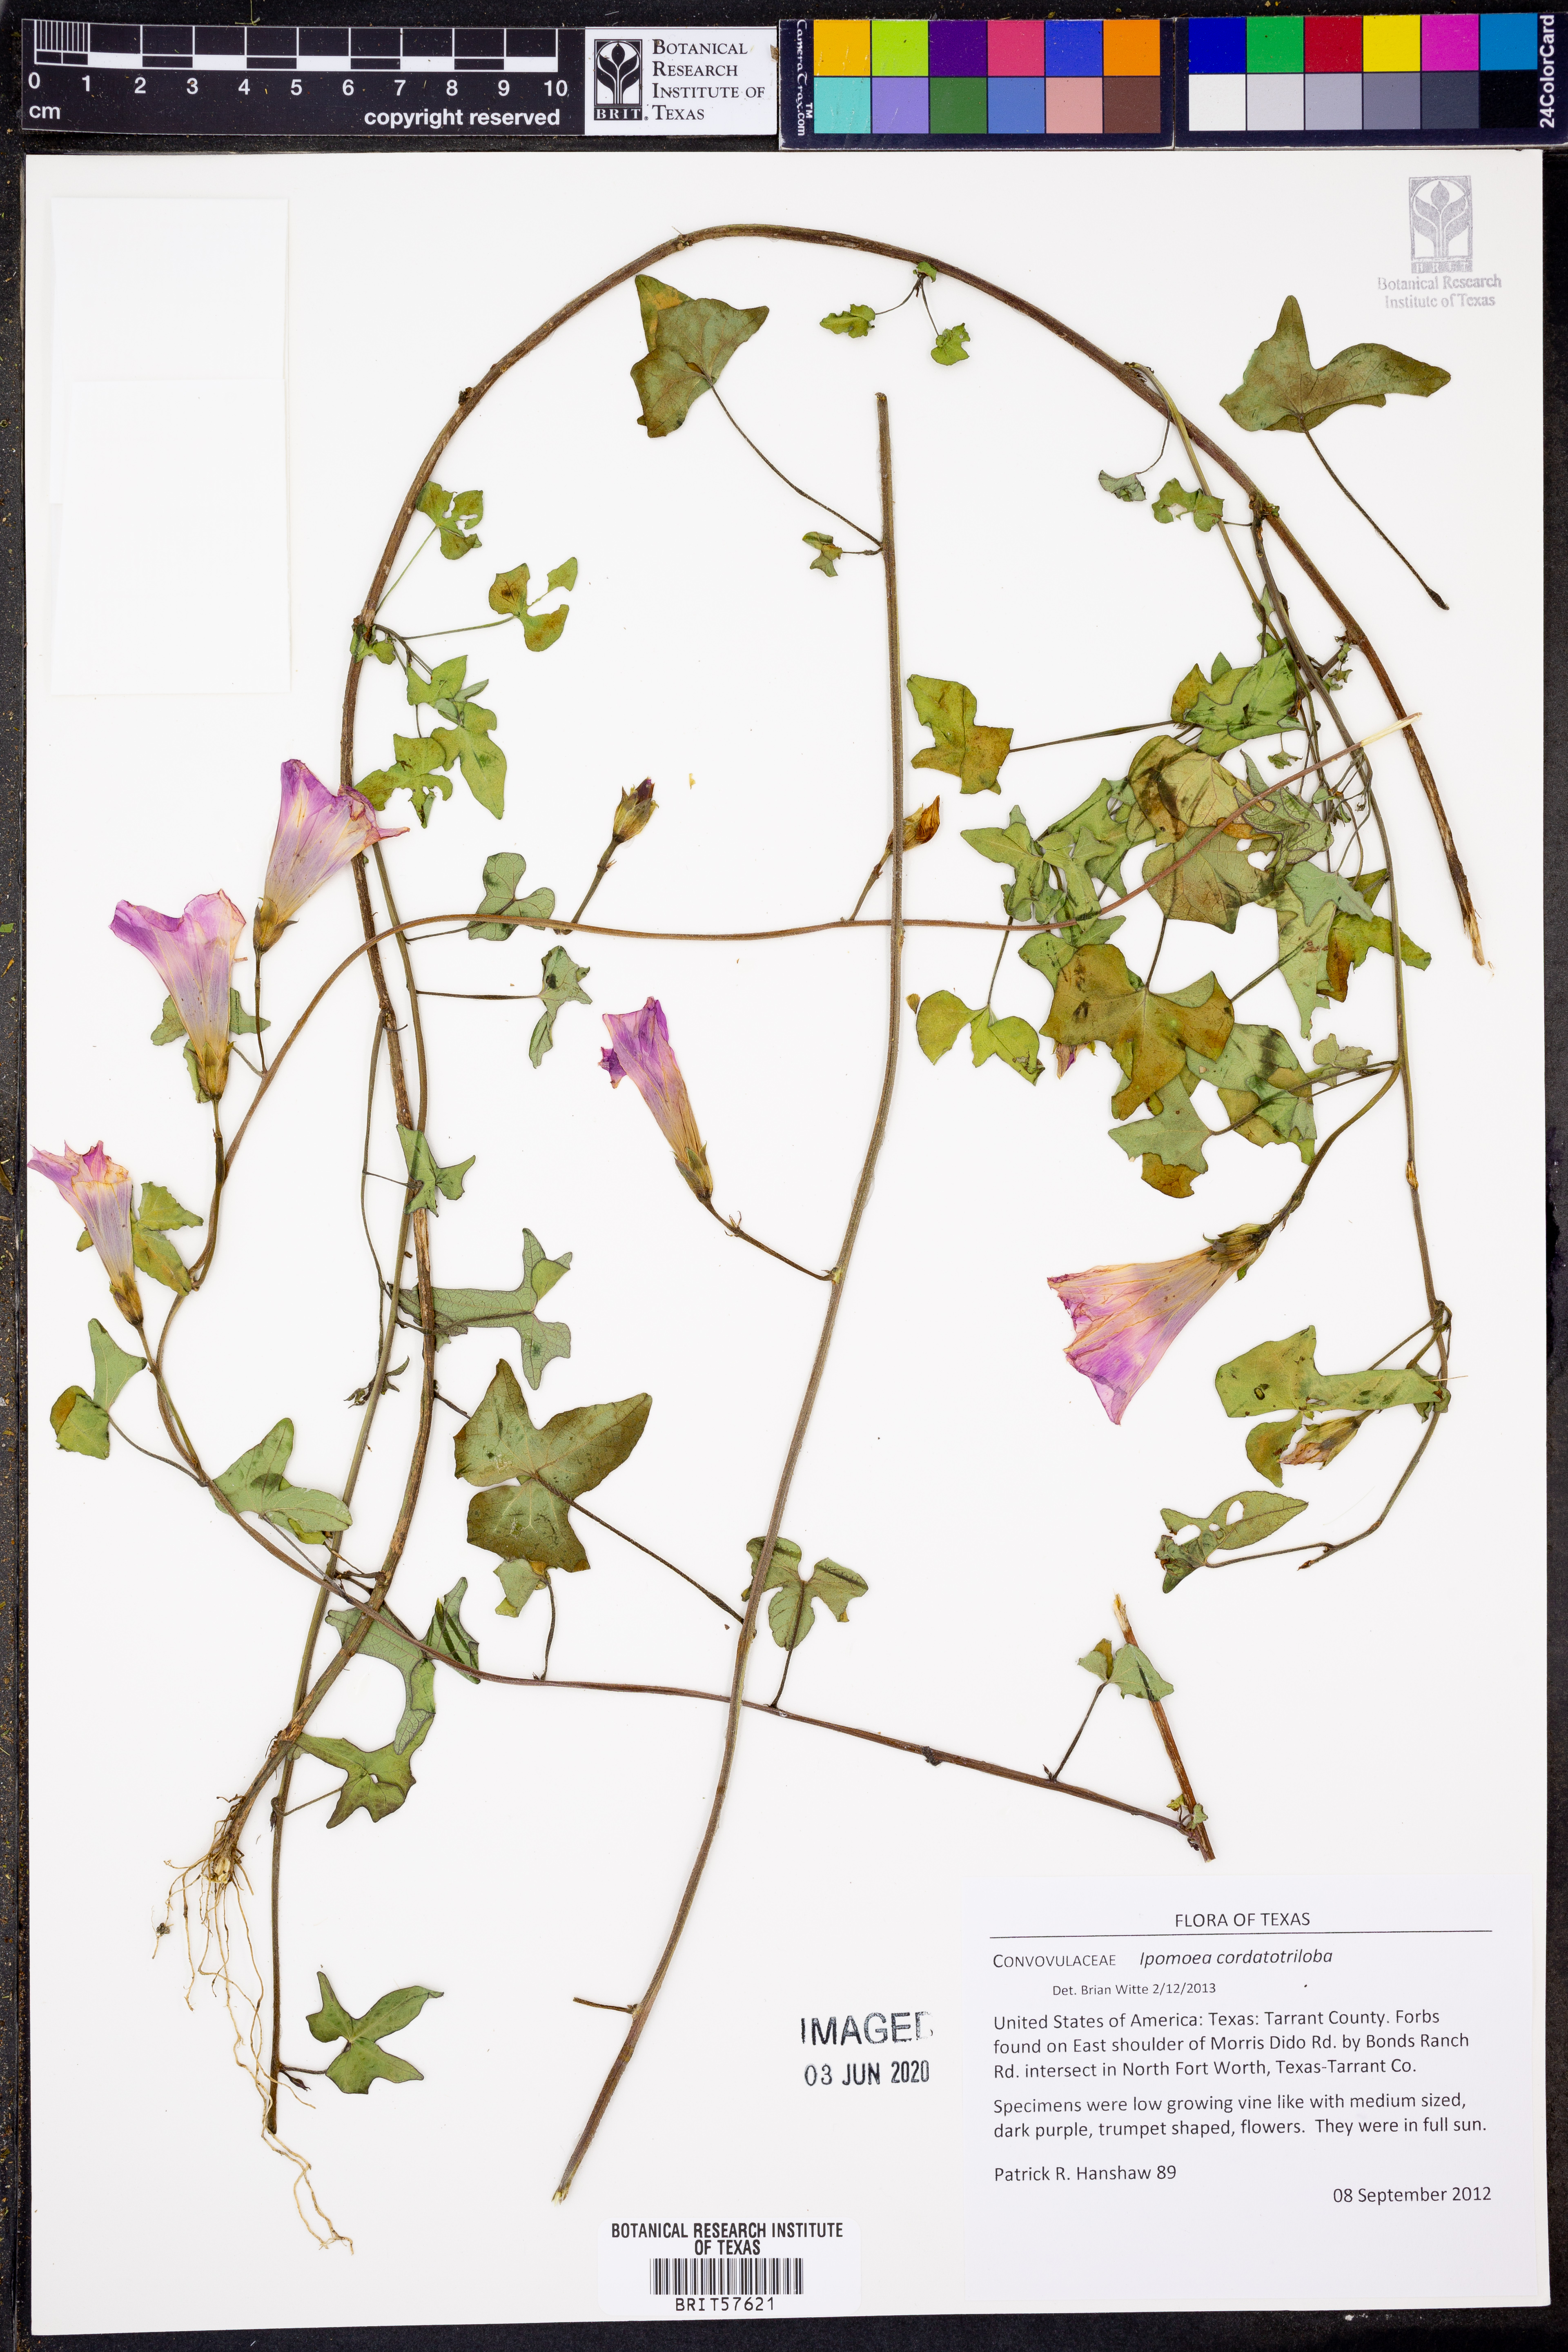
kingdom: Plantae
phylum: Tracheophyta
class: Magnoliopsida
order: Solanales
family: Convolvulaceae
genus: Ipomoea
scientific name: Ipomoea cordatotriloba
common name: Cotton morning glory
